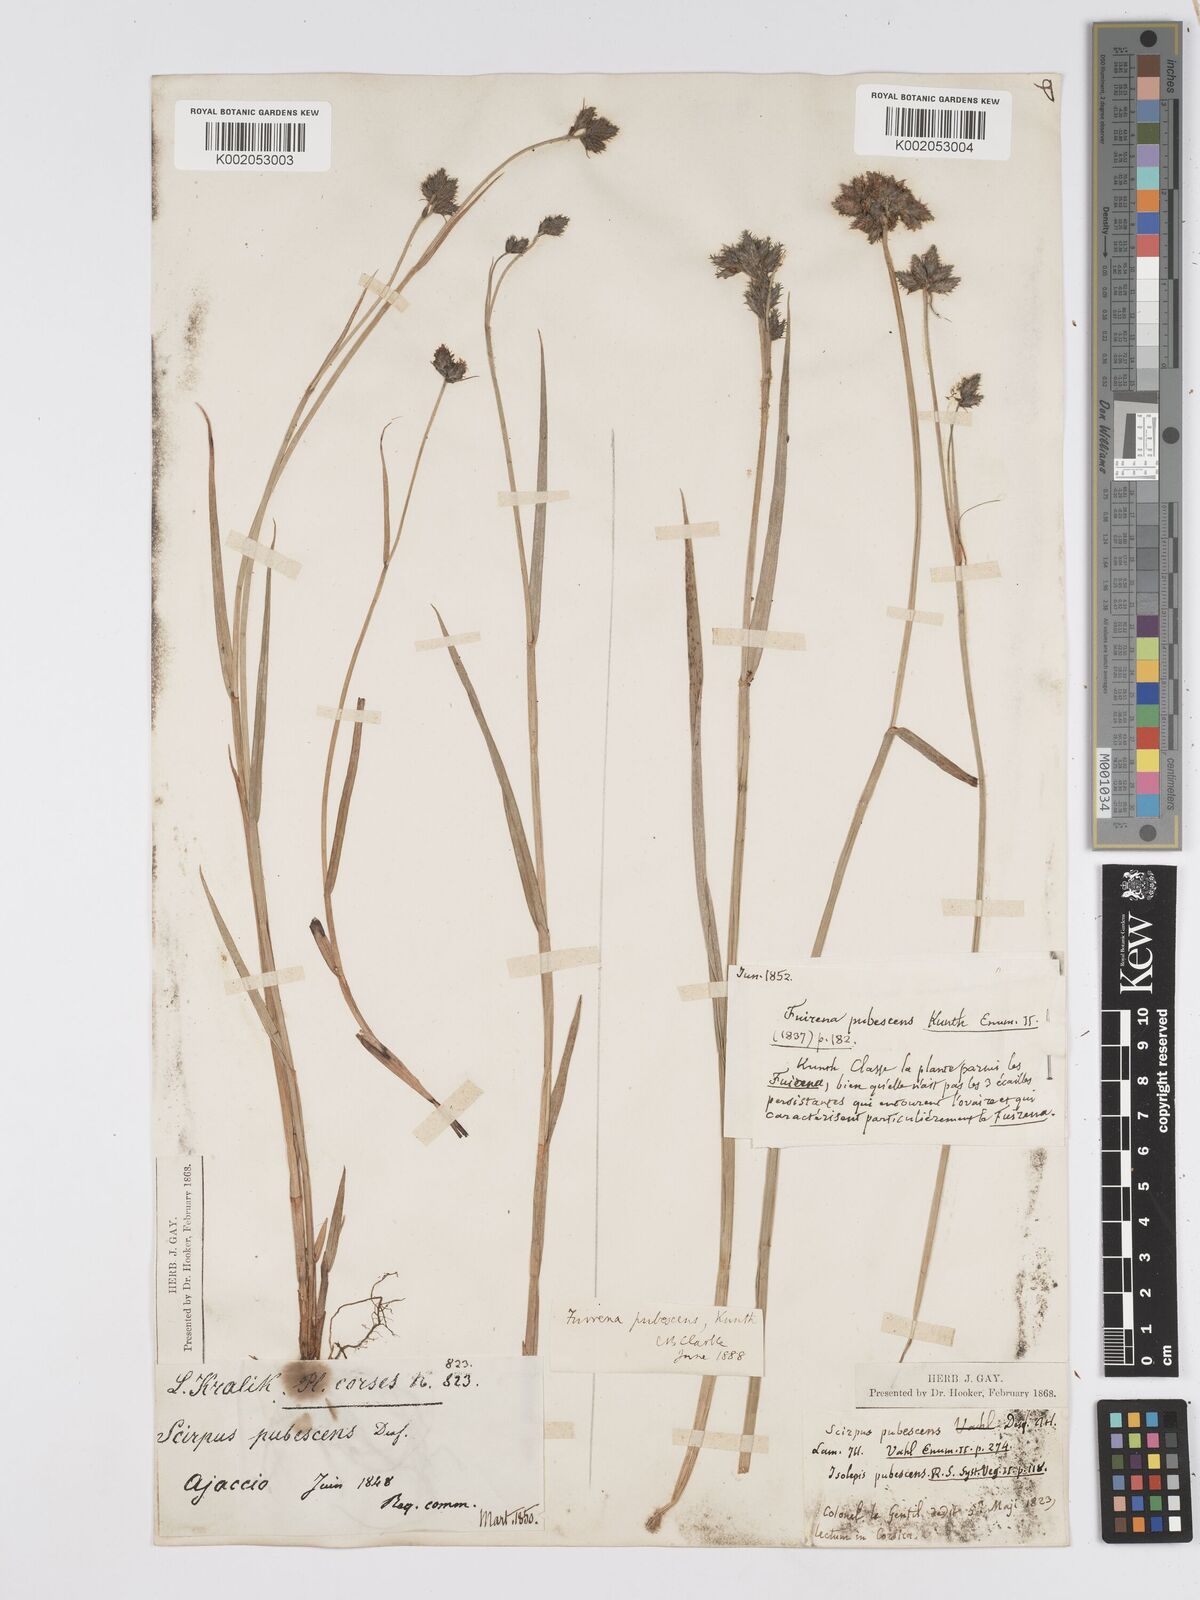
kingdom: Plantae
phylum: Tracheophyta
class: Liliopsida
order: Poales
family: Cyperaceae
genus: Fuirena
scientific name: Fuirena pubescens
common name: Hairy sedge
